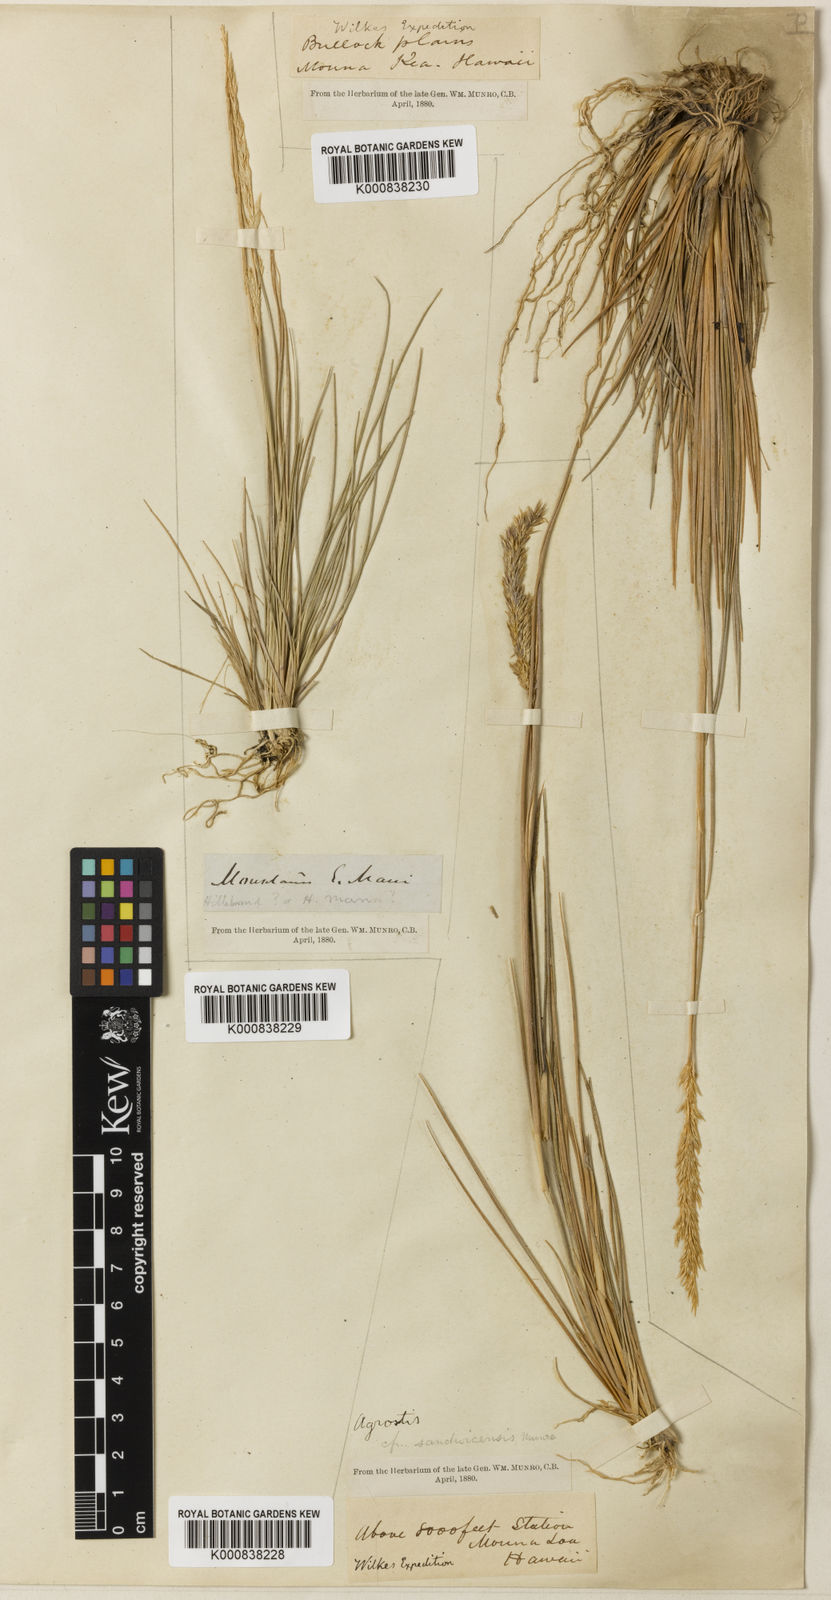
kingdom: Plantae
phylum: Tracheophyta
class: Liliopsida
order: Poales
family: Poaceae
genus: Agrostis
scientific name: Agrostis
